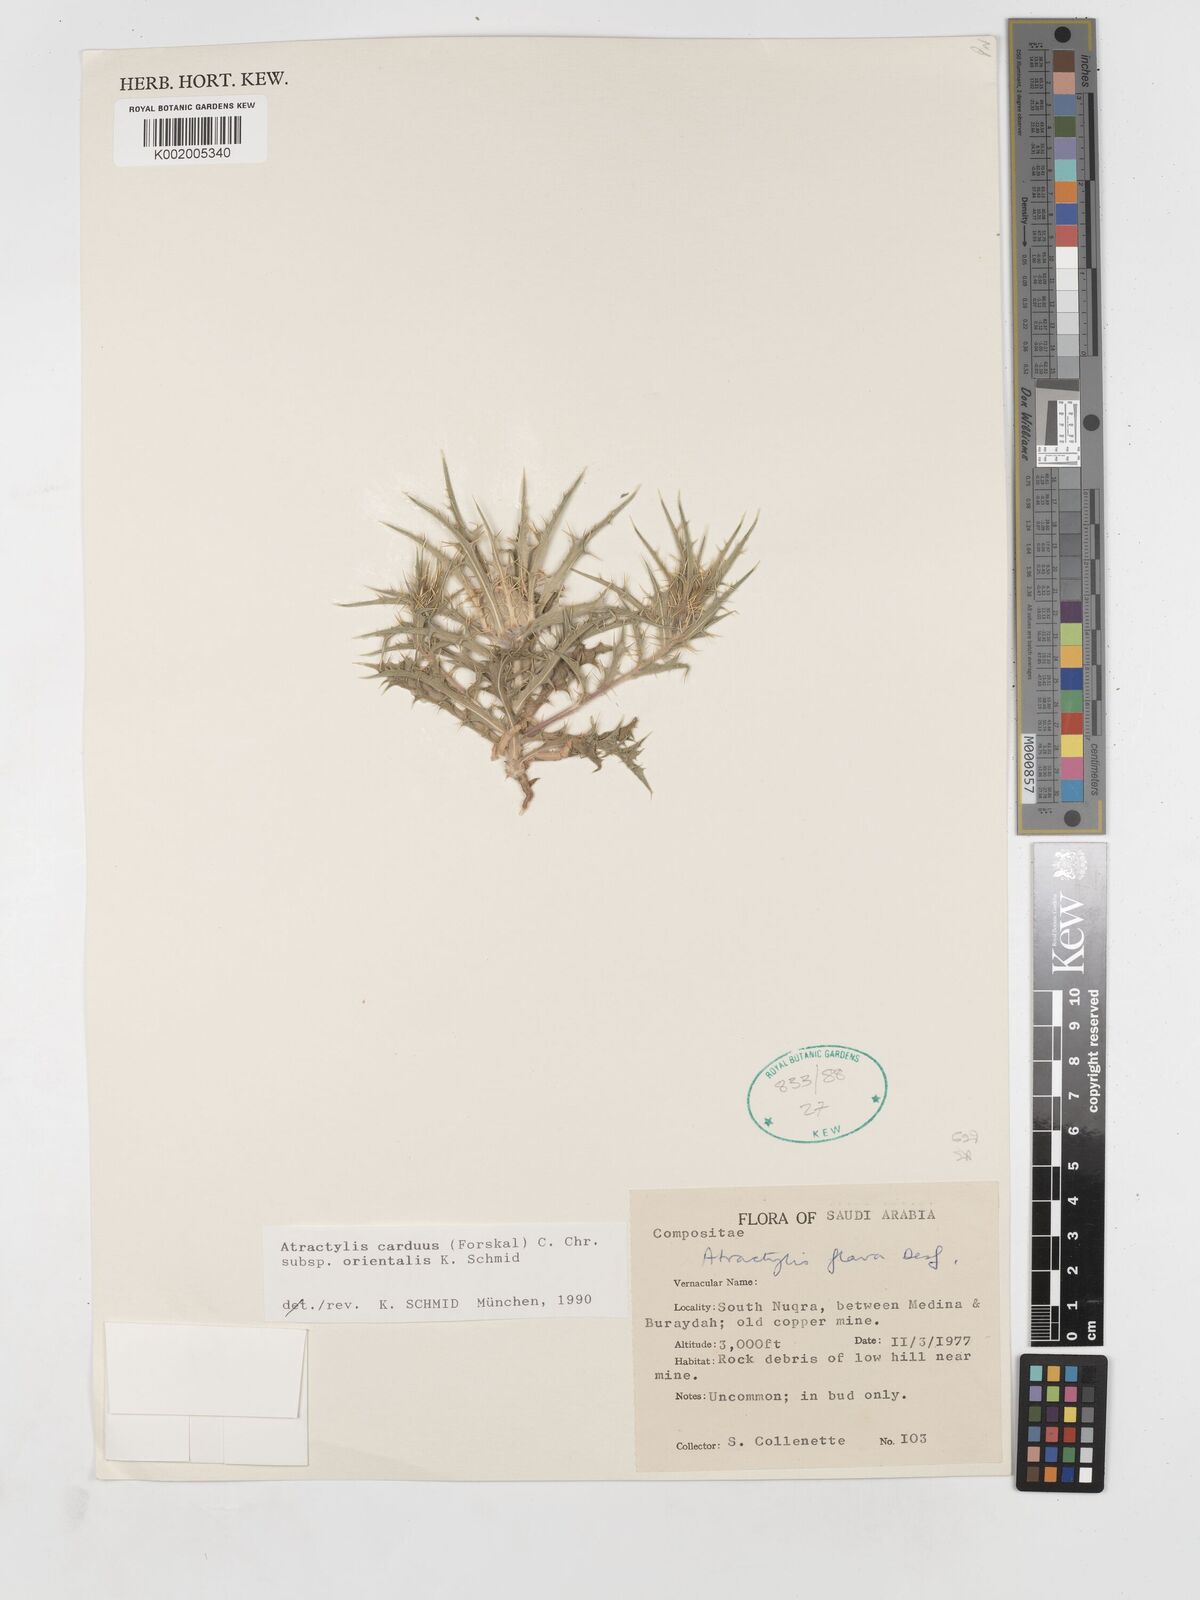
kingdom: Plantae
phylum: Tracheophyta
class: Magnoliopsida
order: Asterales
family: Asteraceae
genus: Atractylis
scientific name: Atractylis carduus
